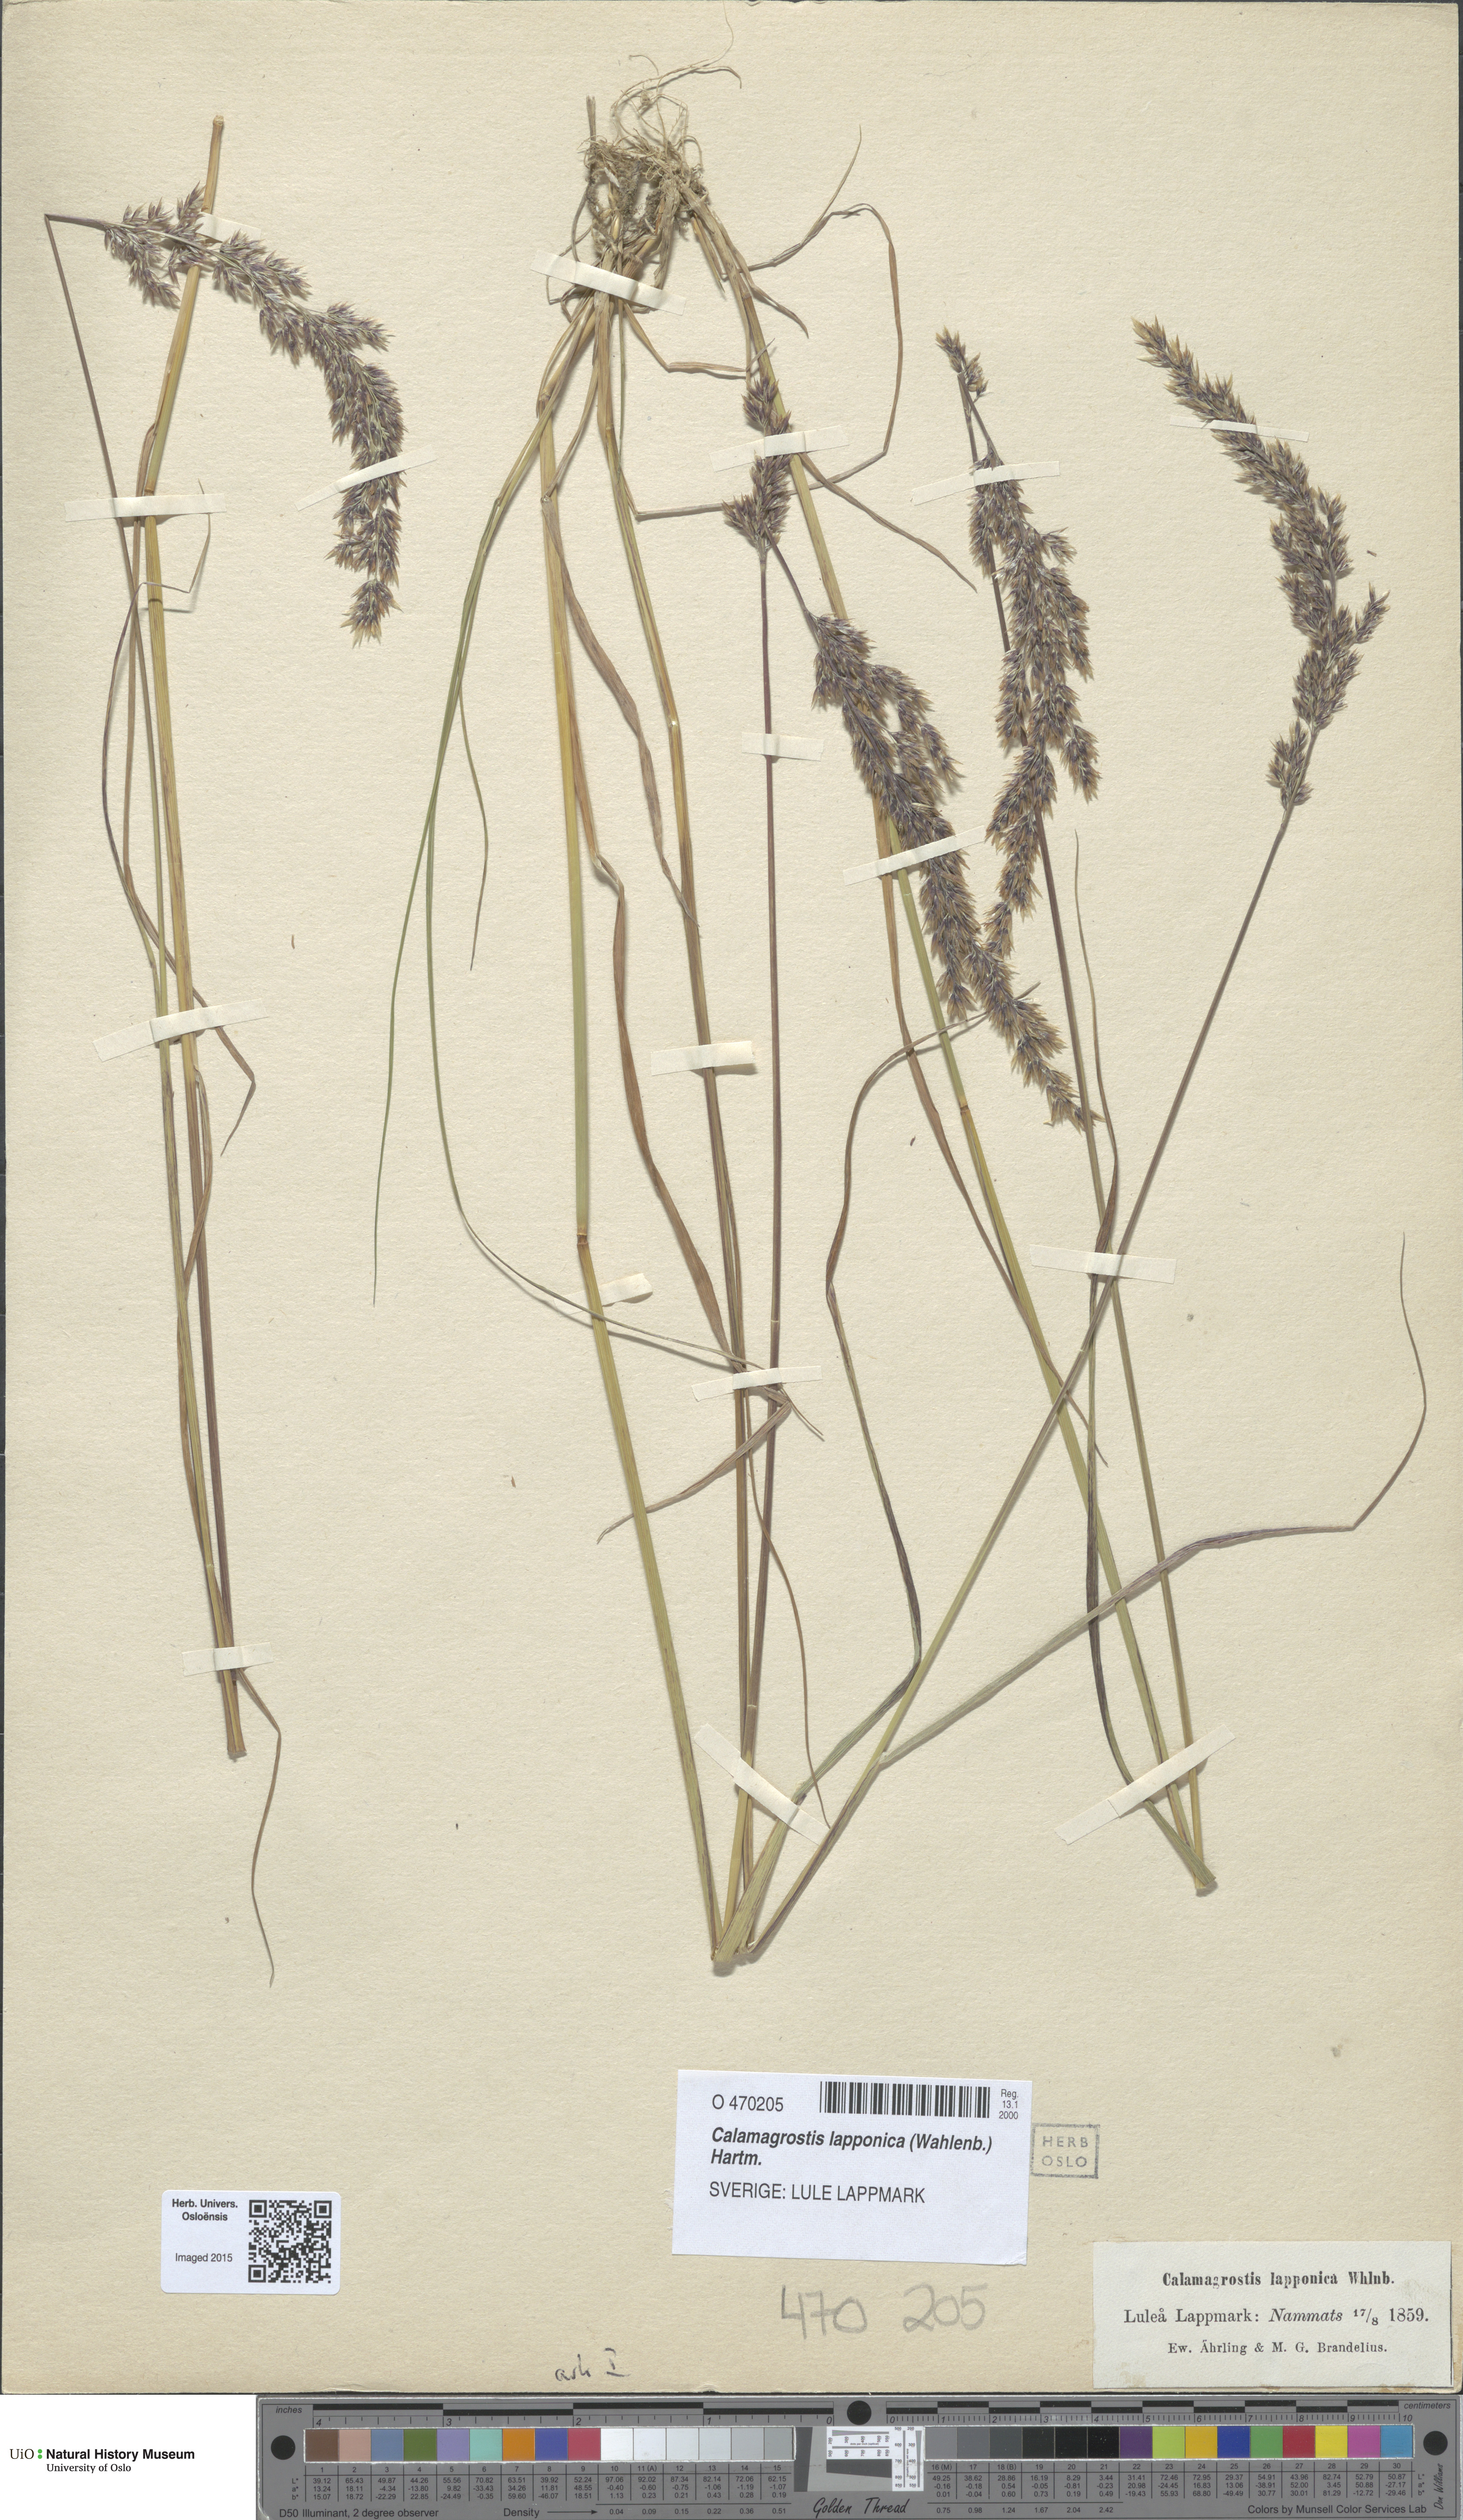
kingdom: Plantae
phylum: Tracheophyta
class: Liliopsida
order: Poales
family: Poaceae
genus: Calamagrostis
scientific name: Calamagrostis lapponica
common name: Lapland reedgrass
